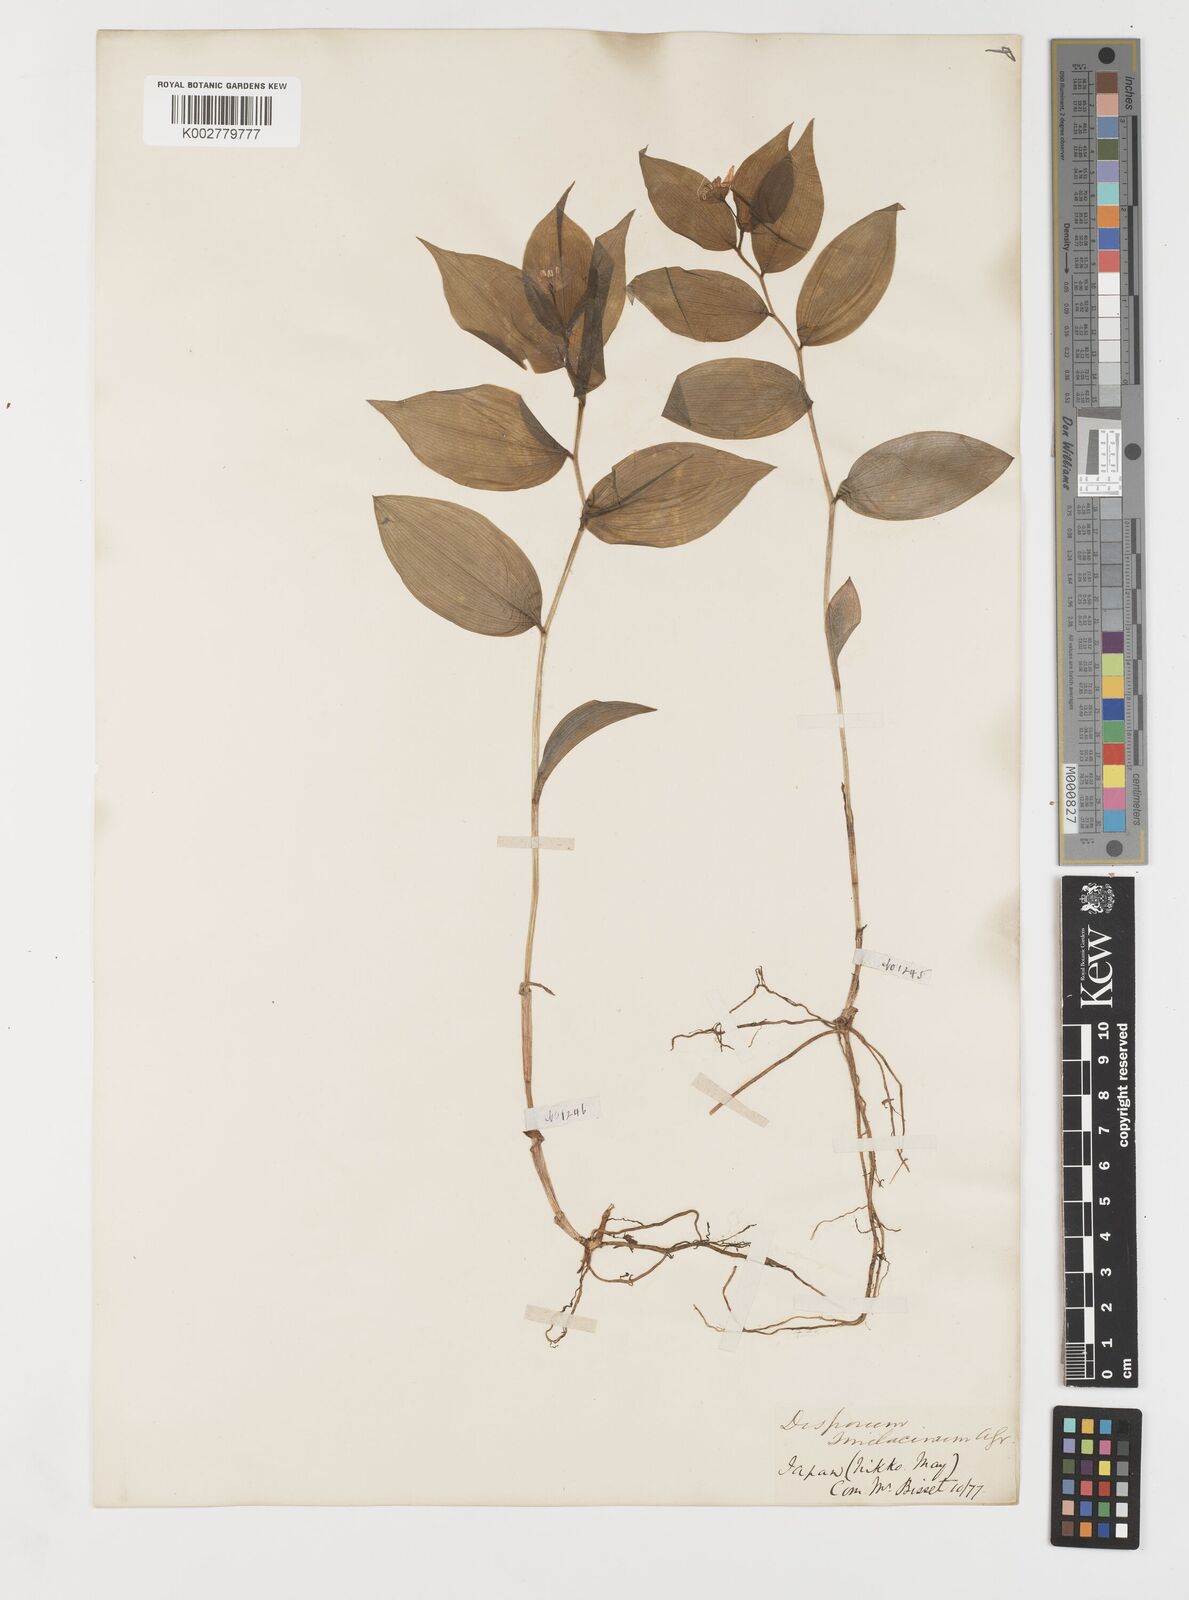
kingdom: Plantae
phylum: Tracheophyta
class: Liliopsida
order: Liliales
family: Colchicaceae
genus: Disporum
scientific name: Disporum smilacinum
